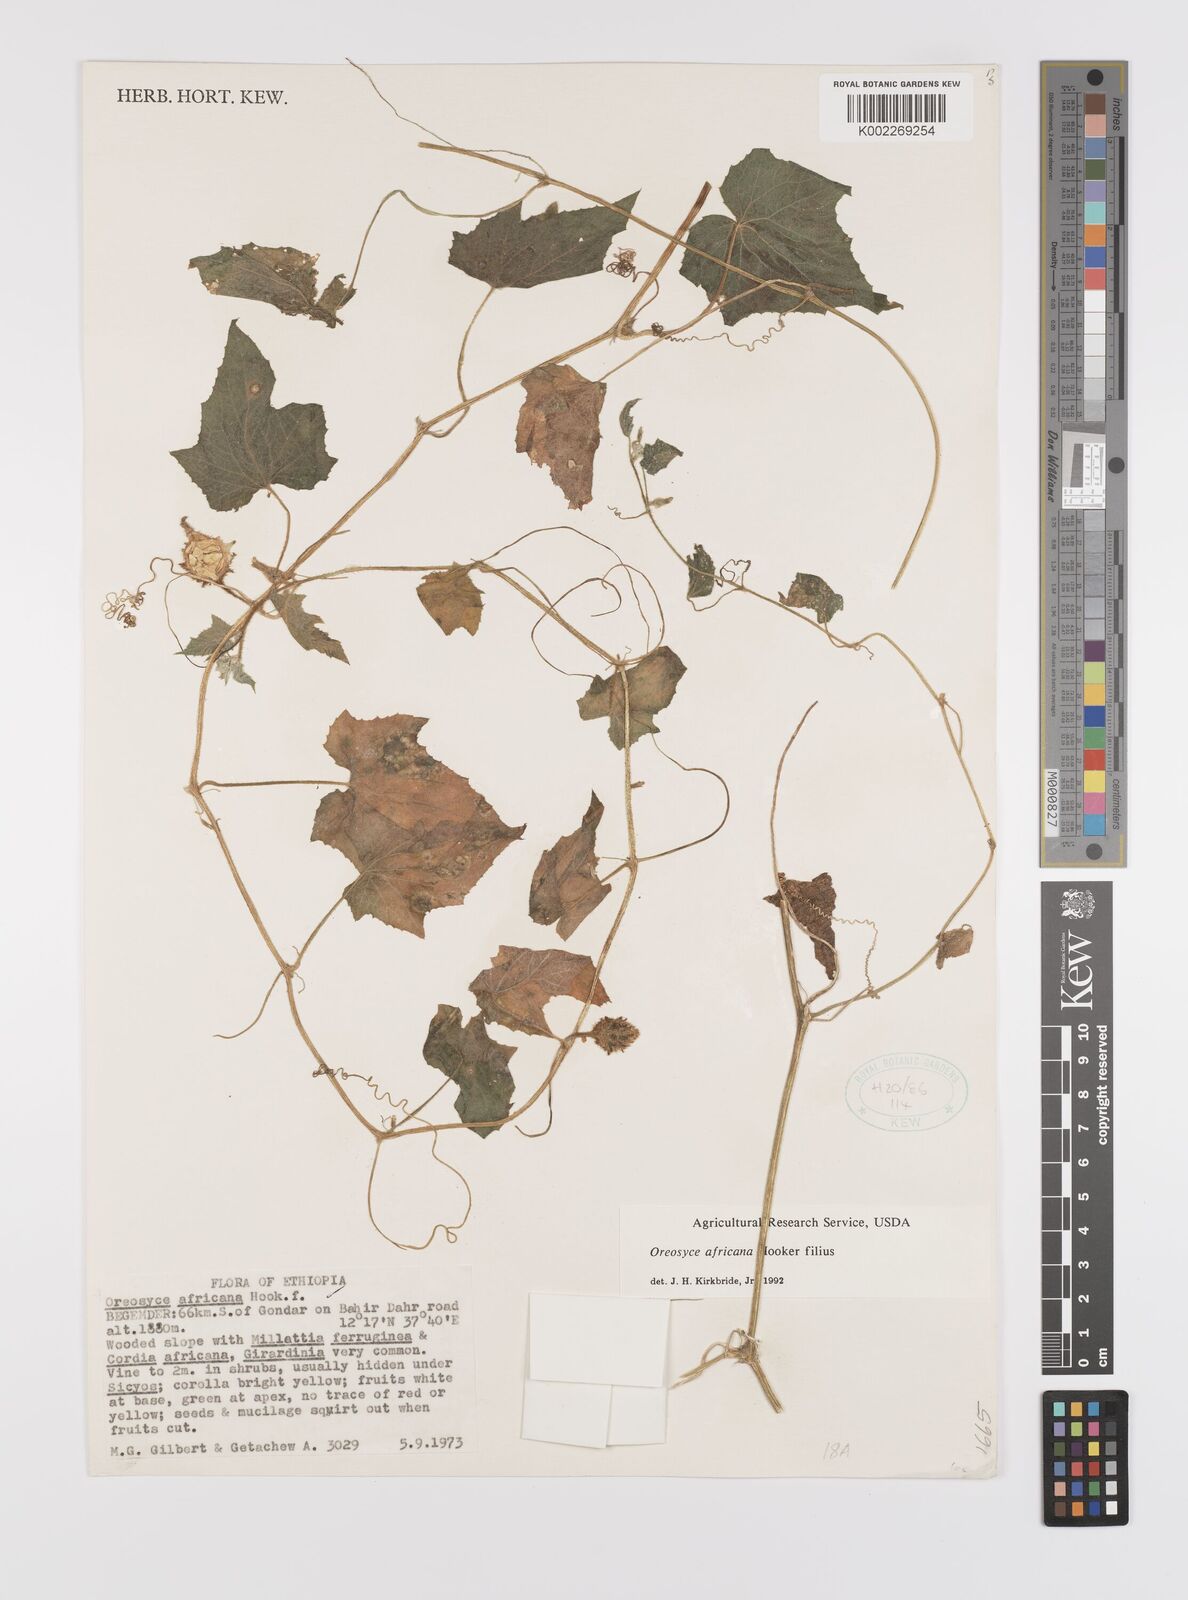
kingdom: Plantae
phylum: Tracheophyta
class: Magnoliopsida
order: Cucurbitales
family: Cucurbitaceae
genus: Cucumis
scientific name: Cucumis oreosyce
